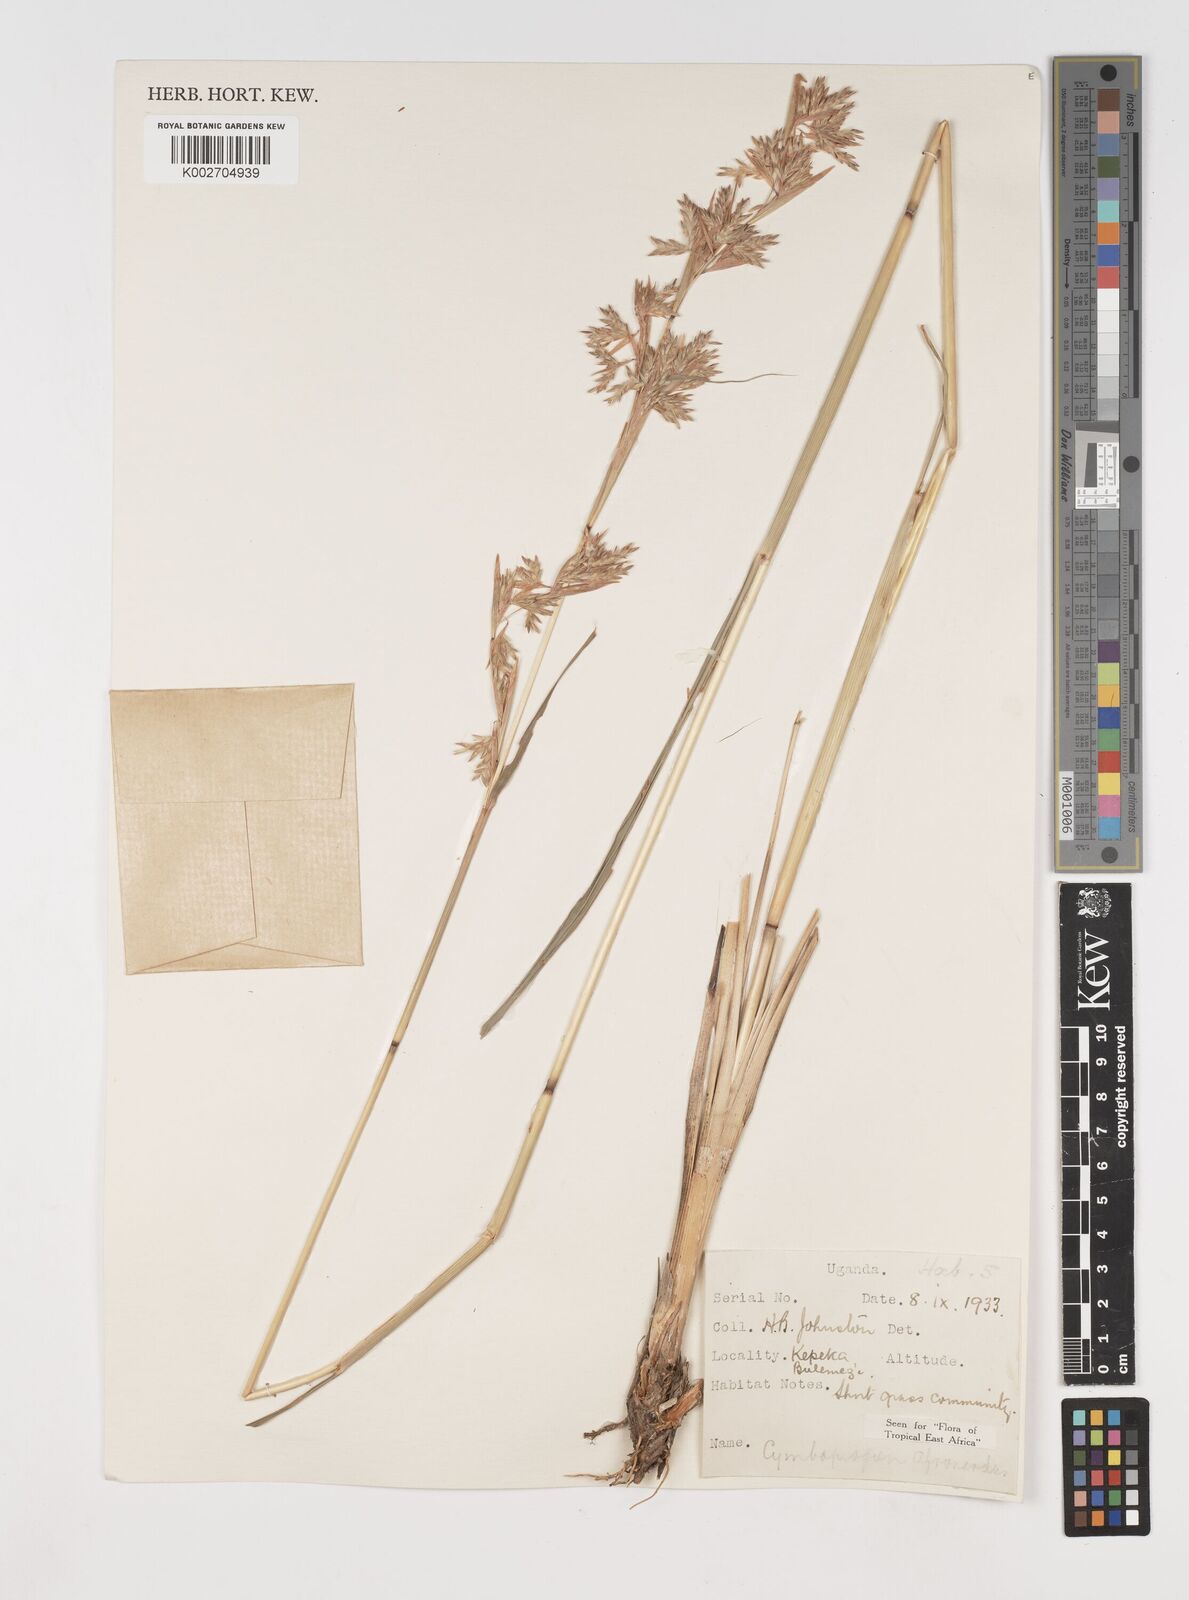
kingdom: Plantae
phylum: Tracheophyta
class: Liliopsida
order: Poales
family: Poaceae
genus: Cymbopogon
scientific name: Cymbopogon nardus
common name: Giant turpentine grass
